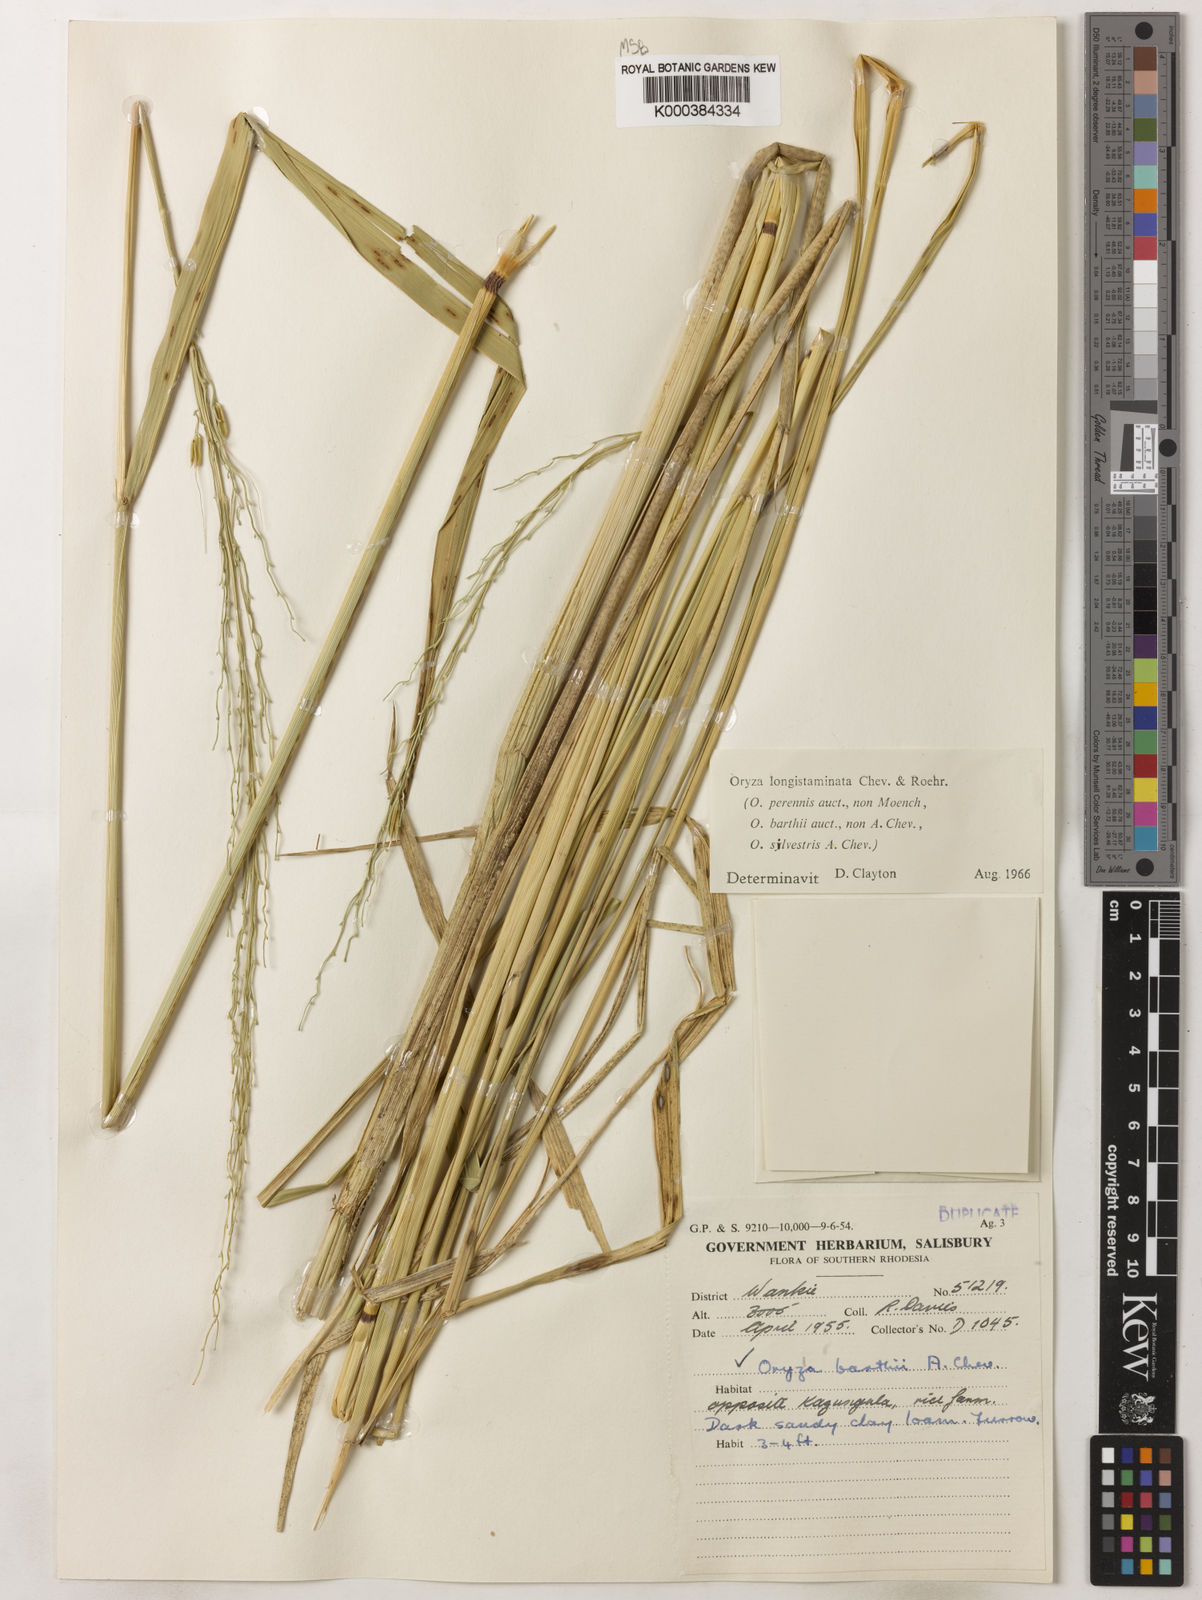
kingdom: Plantae
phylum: Tracheophyta
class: Liliopsida
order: Poales
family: Poaceae
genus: Oryza
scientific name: Oryza longistaminata
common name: Red rice
